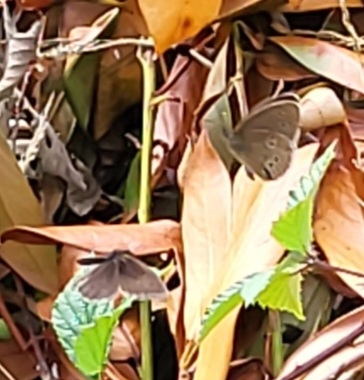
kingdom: Animalia
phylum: Arthropoda
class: Insecta
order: Lepidoptera
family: Nymphalidae
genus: Aphantopus
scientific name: Aphantopus hyperantus
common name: Engrandøje
